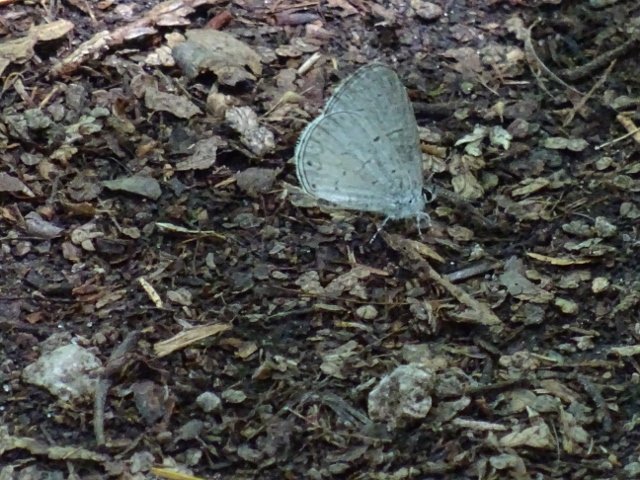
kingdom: Animalia
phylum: Arthropoda
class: Insecta
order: Lepidoptera
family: Lycaenidae
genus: Celastrina
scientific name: Celastrina
